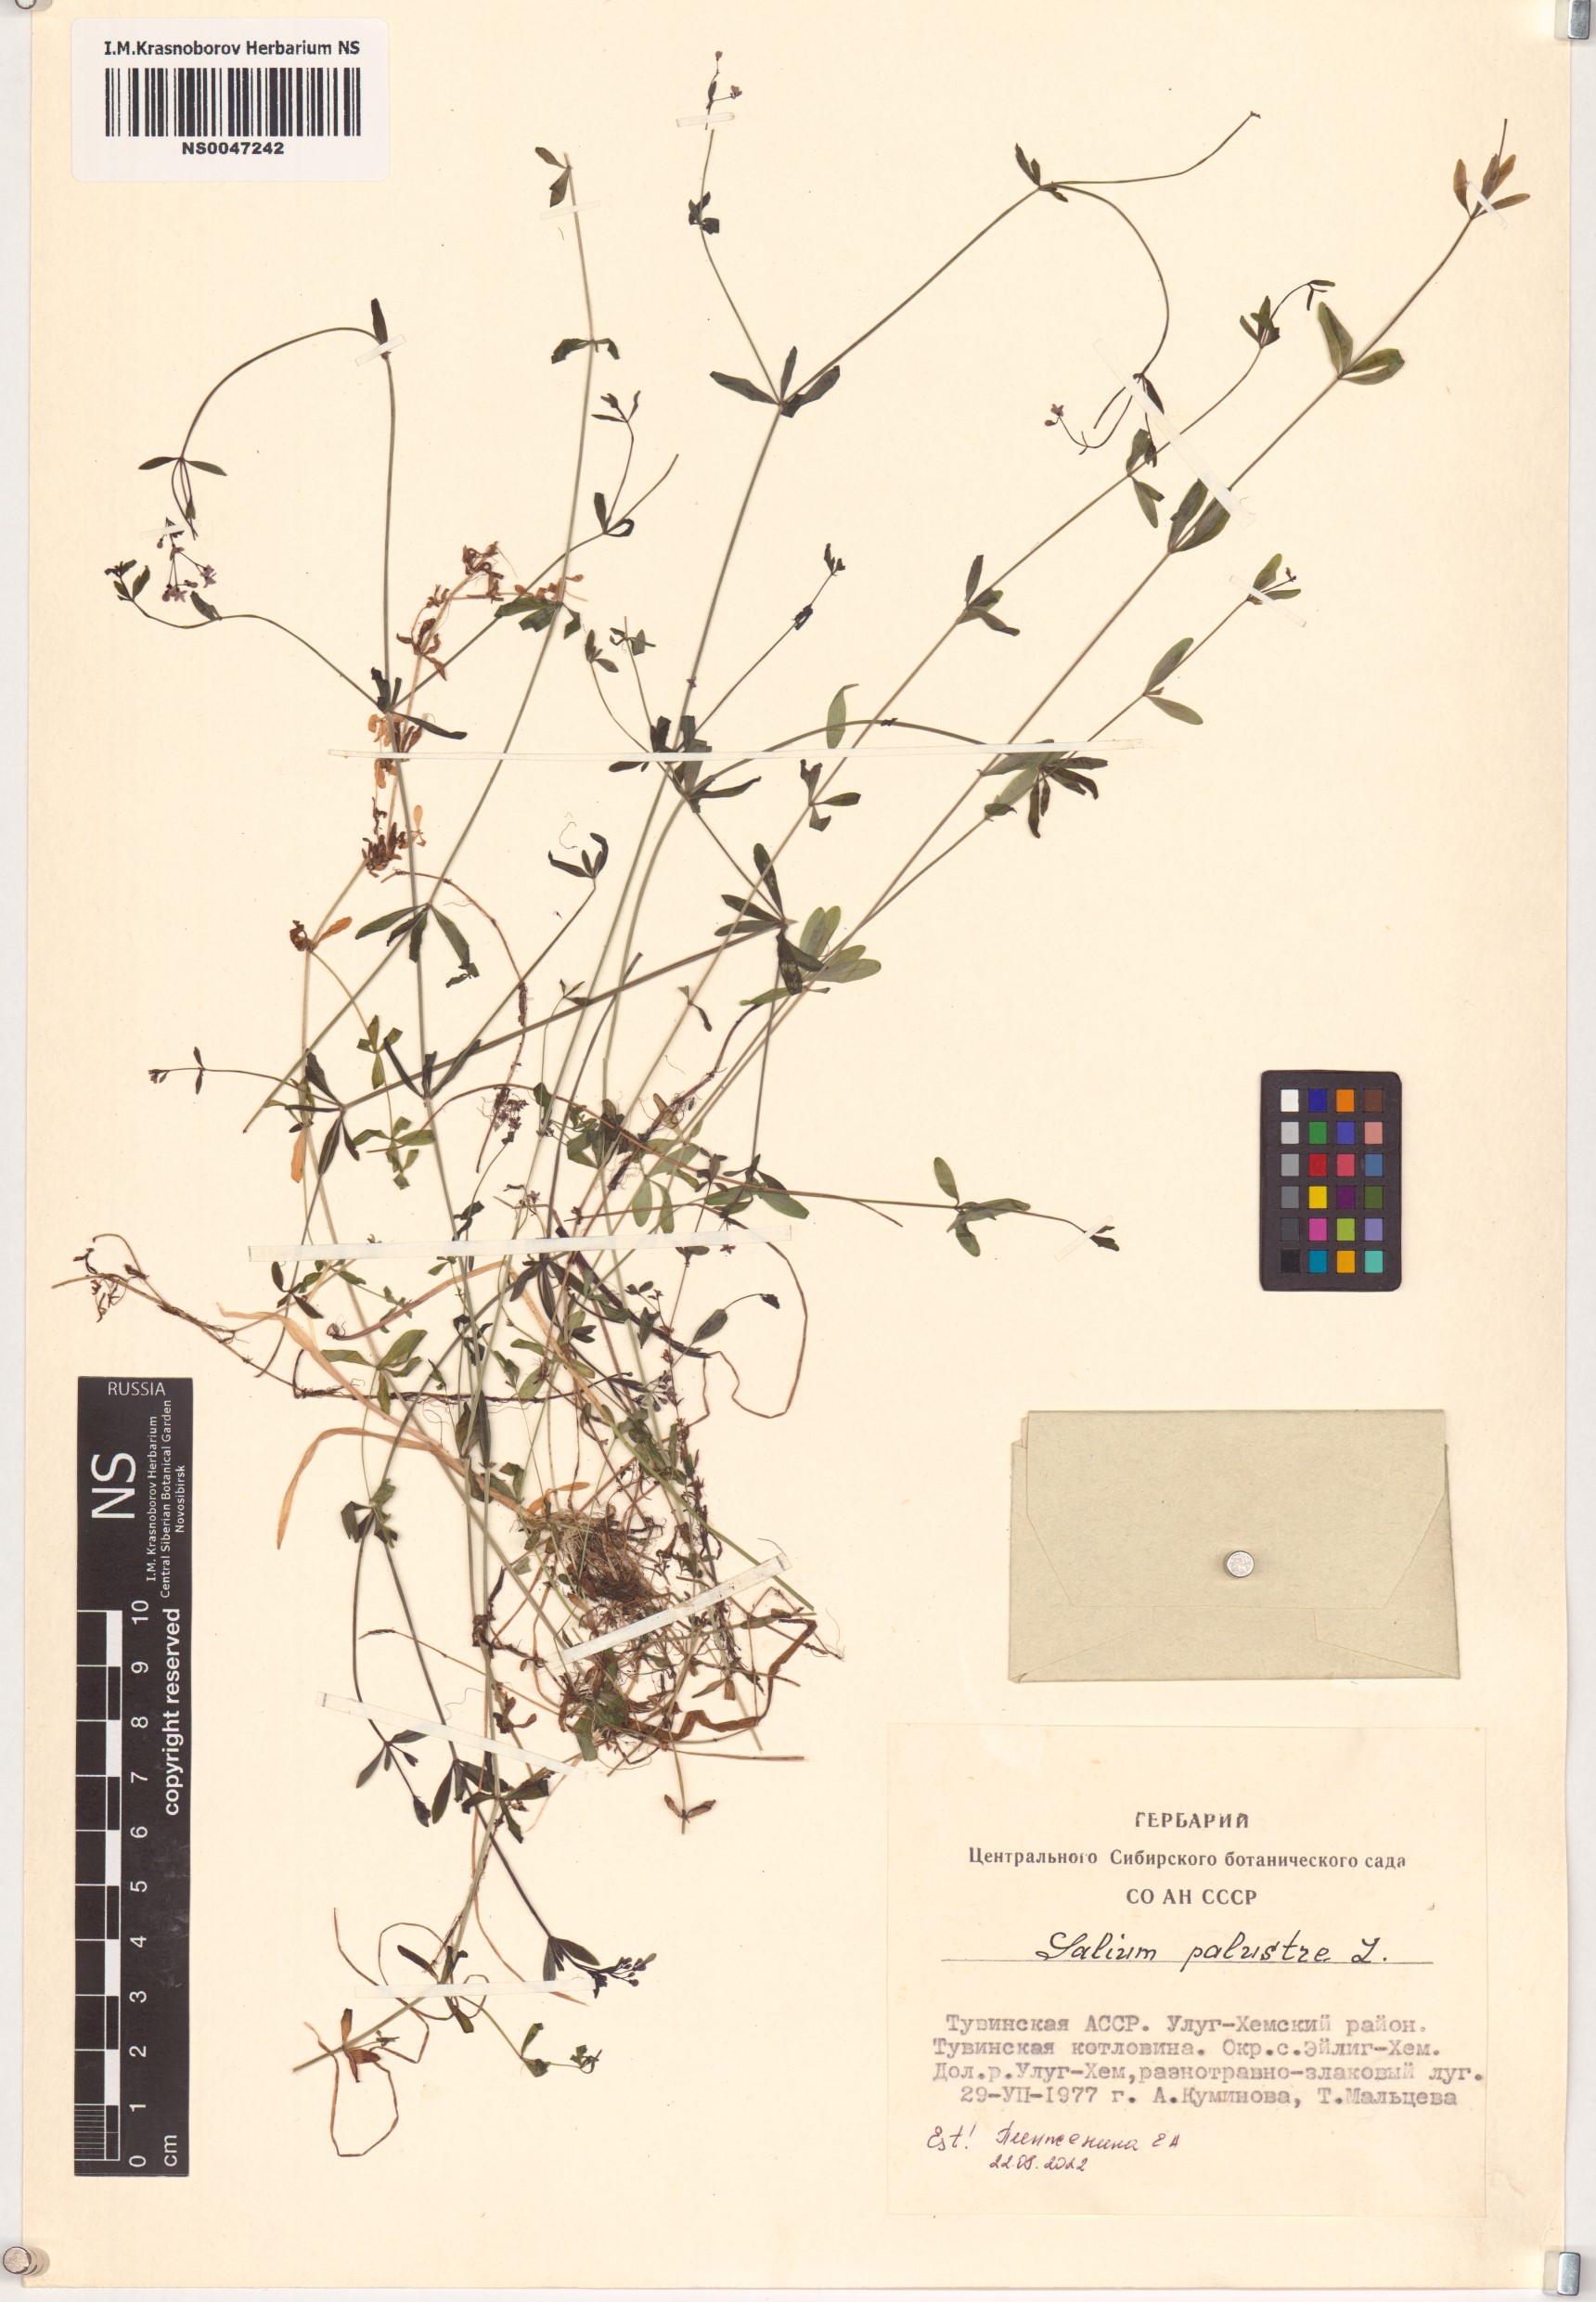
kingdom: Plantae
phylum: Tracheophyta
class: Magnoliopsida
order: Gentianales
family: Rubiaceae
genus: Galium
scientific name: Galium palustre
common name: Common marsh-bedstraw
